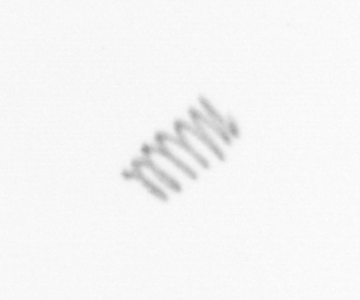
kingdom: Chromista
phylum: Ochrophyta
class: Bacillariophyceae
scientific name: Bacillariophyceae
